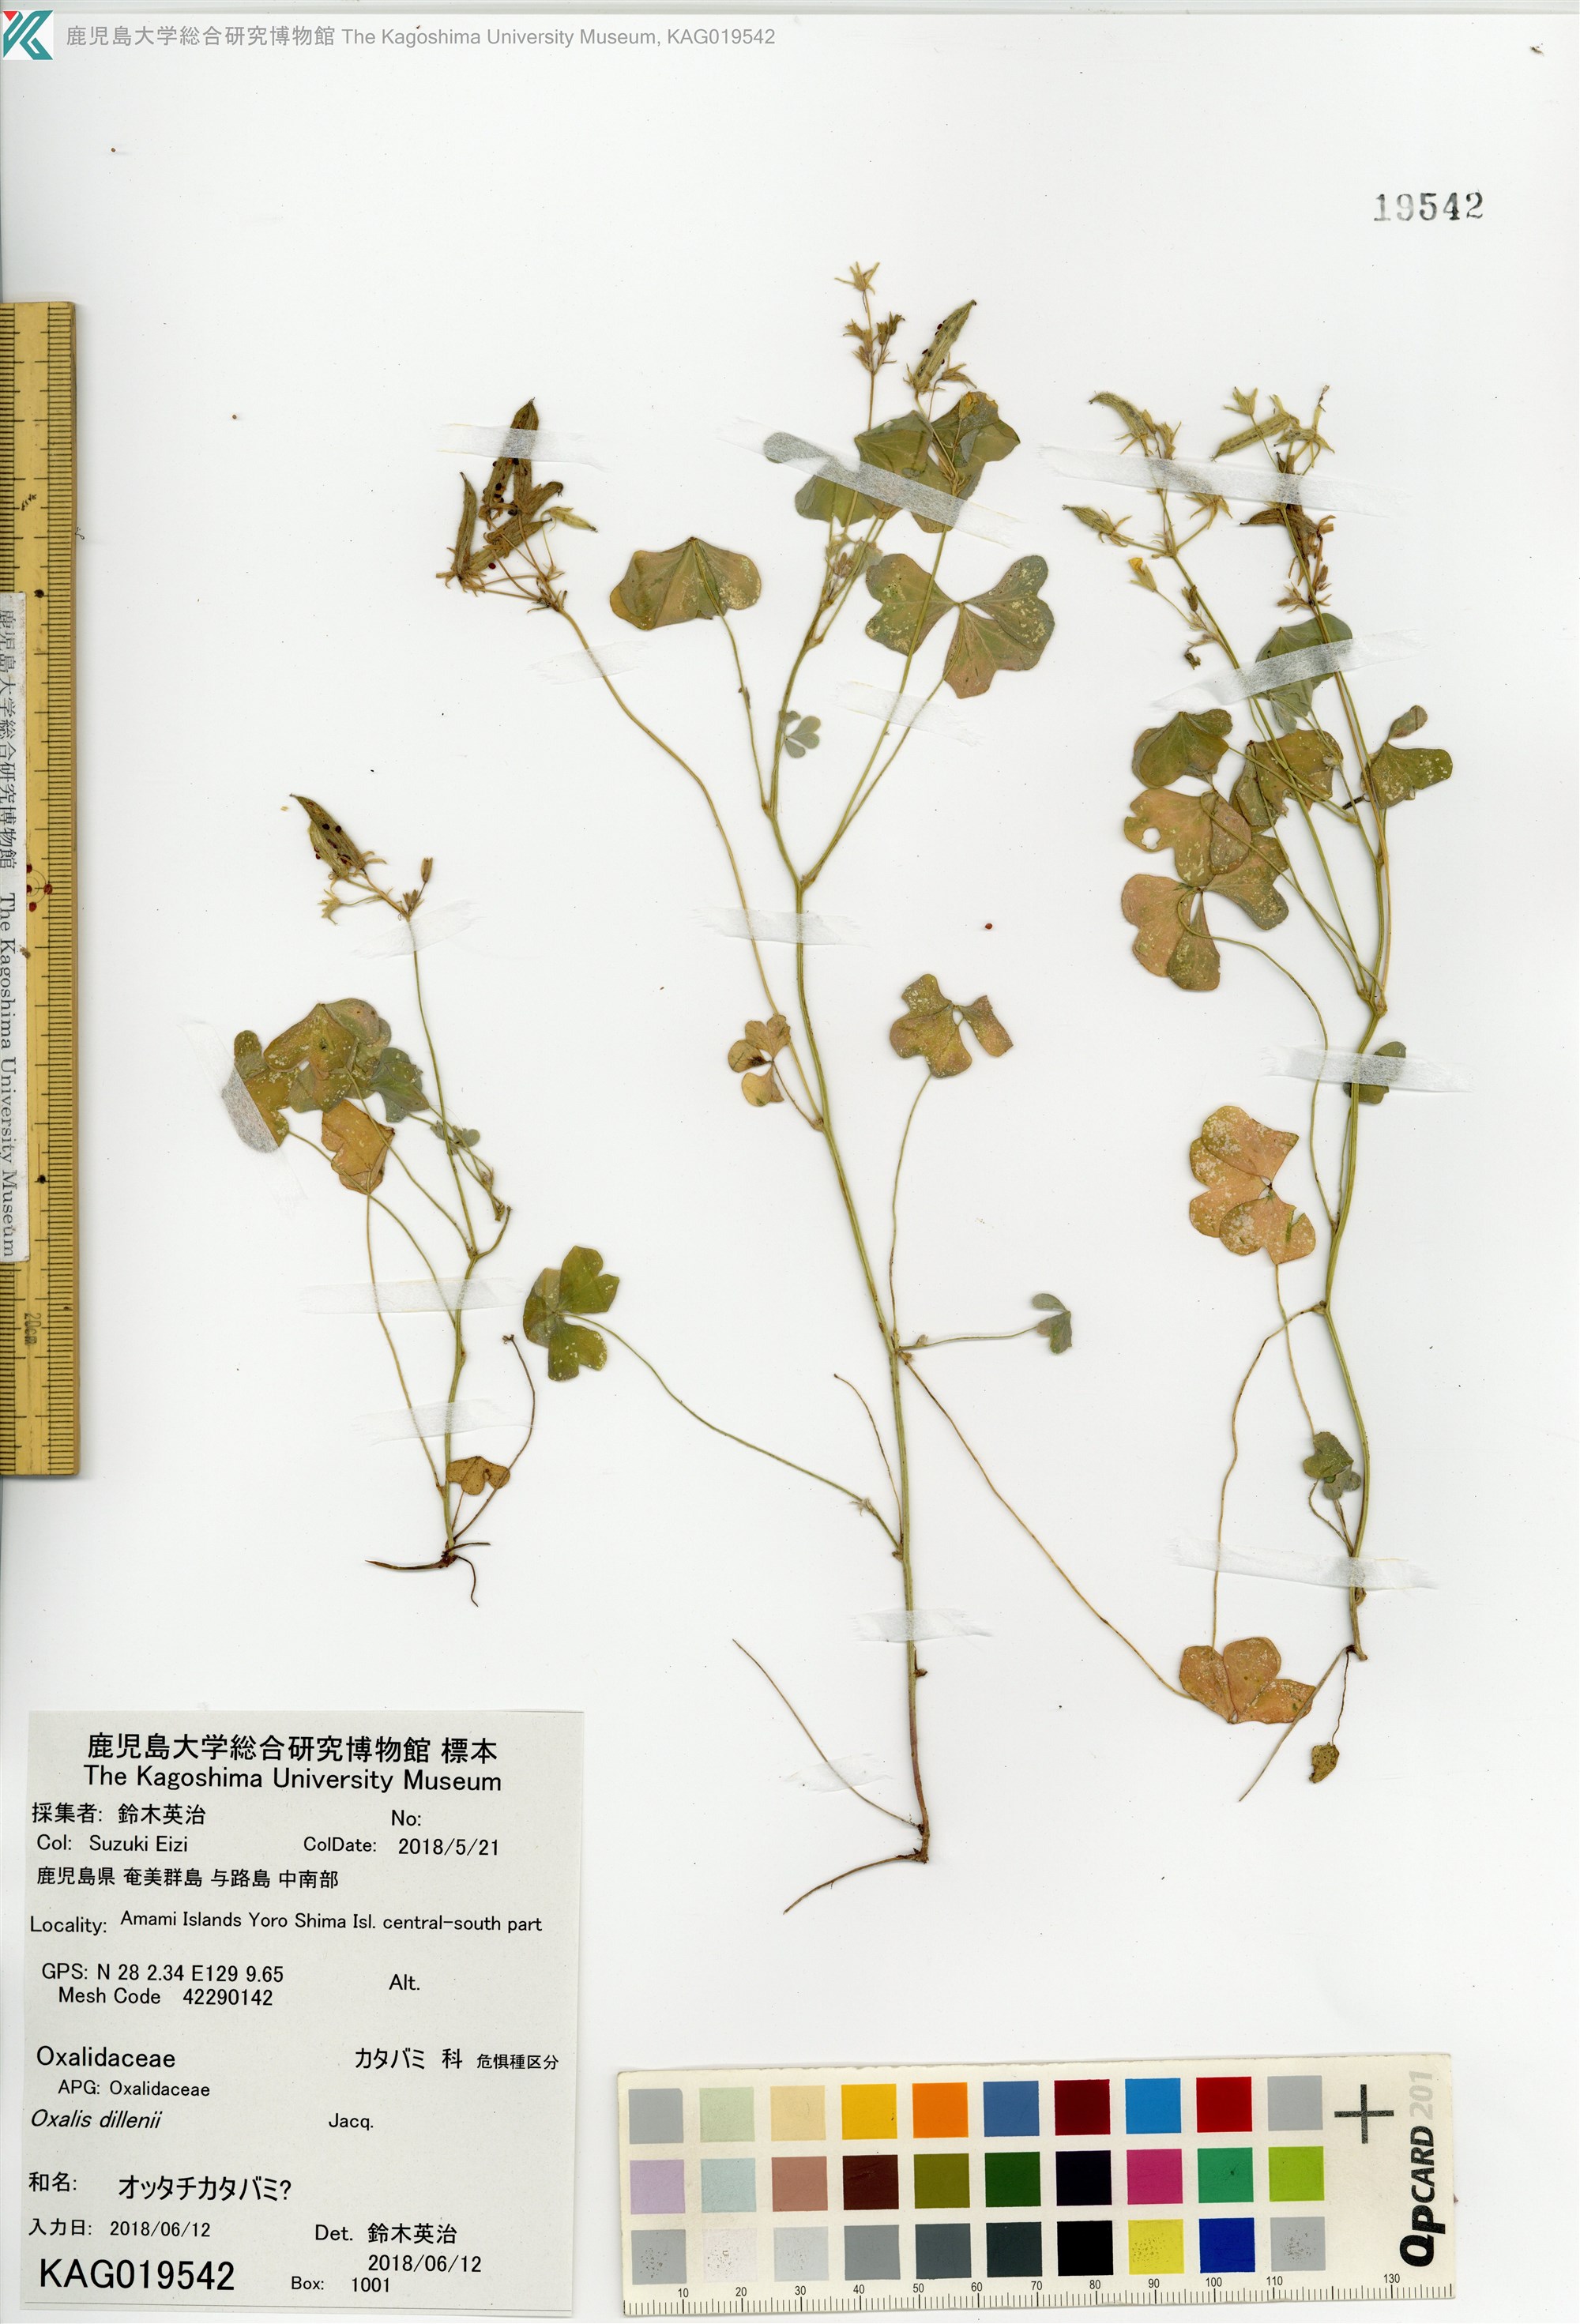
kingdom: Plantae
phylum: Tracheophyta
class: Magnoliopsida
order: Oxalidales
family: Oxalidaceae
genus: Oxalis
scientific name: Oxalis corniculata
